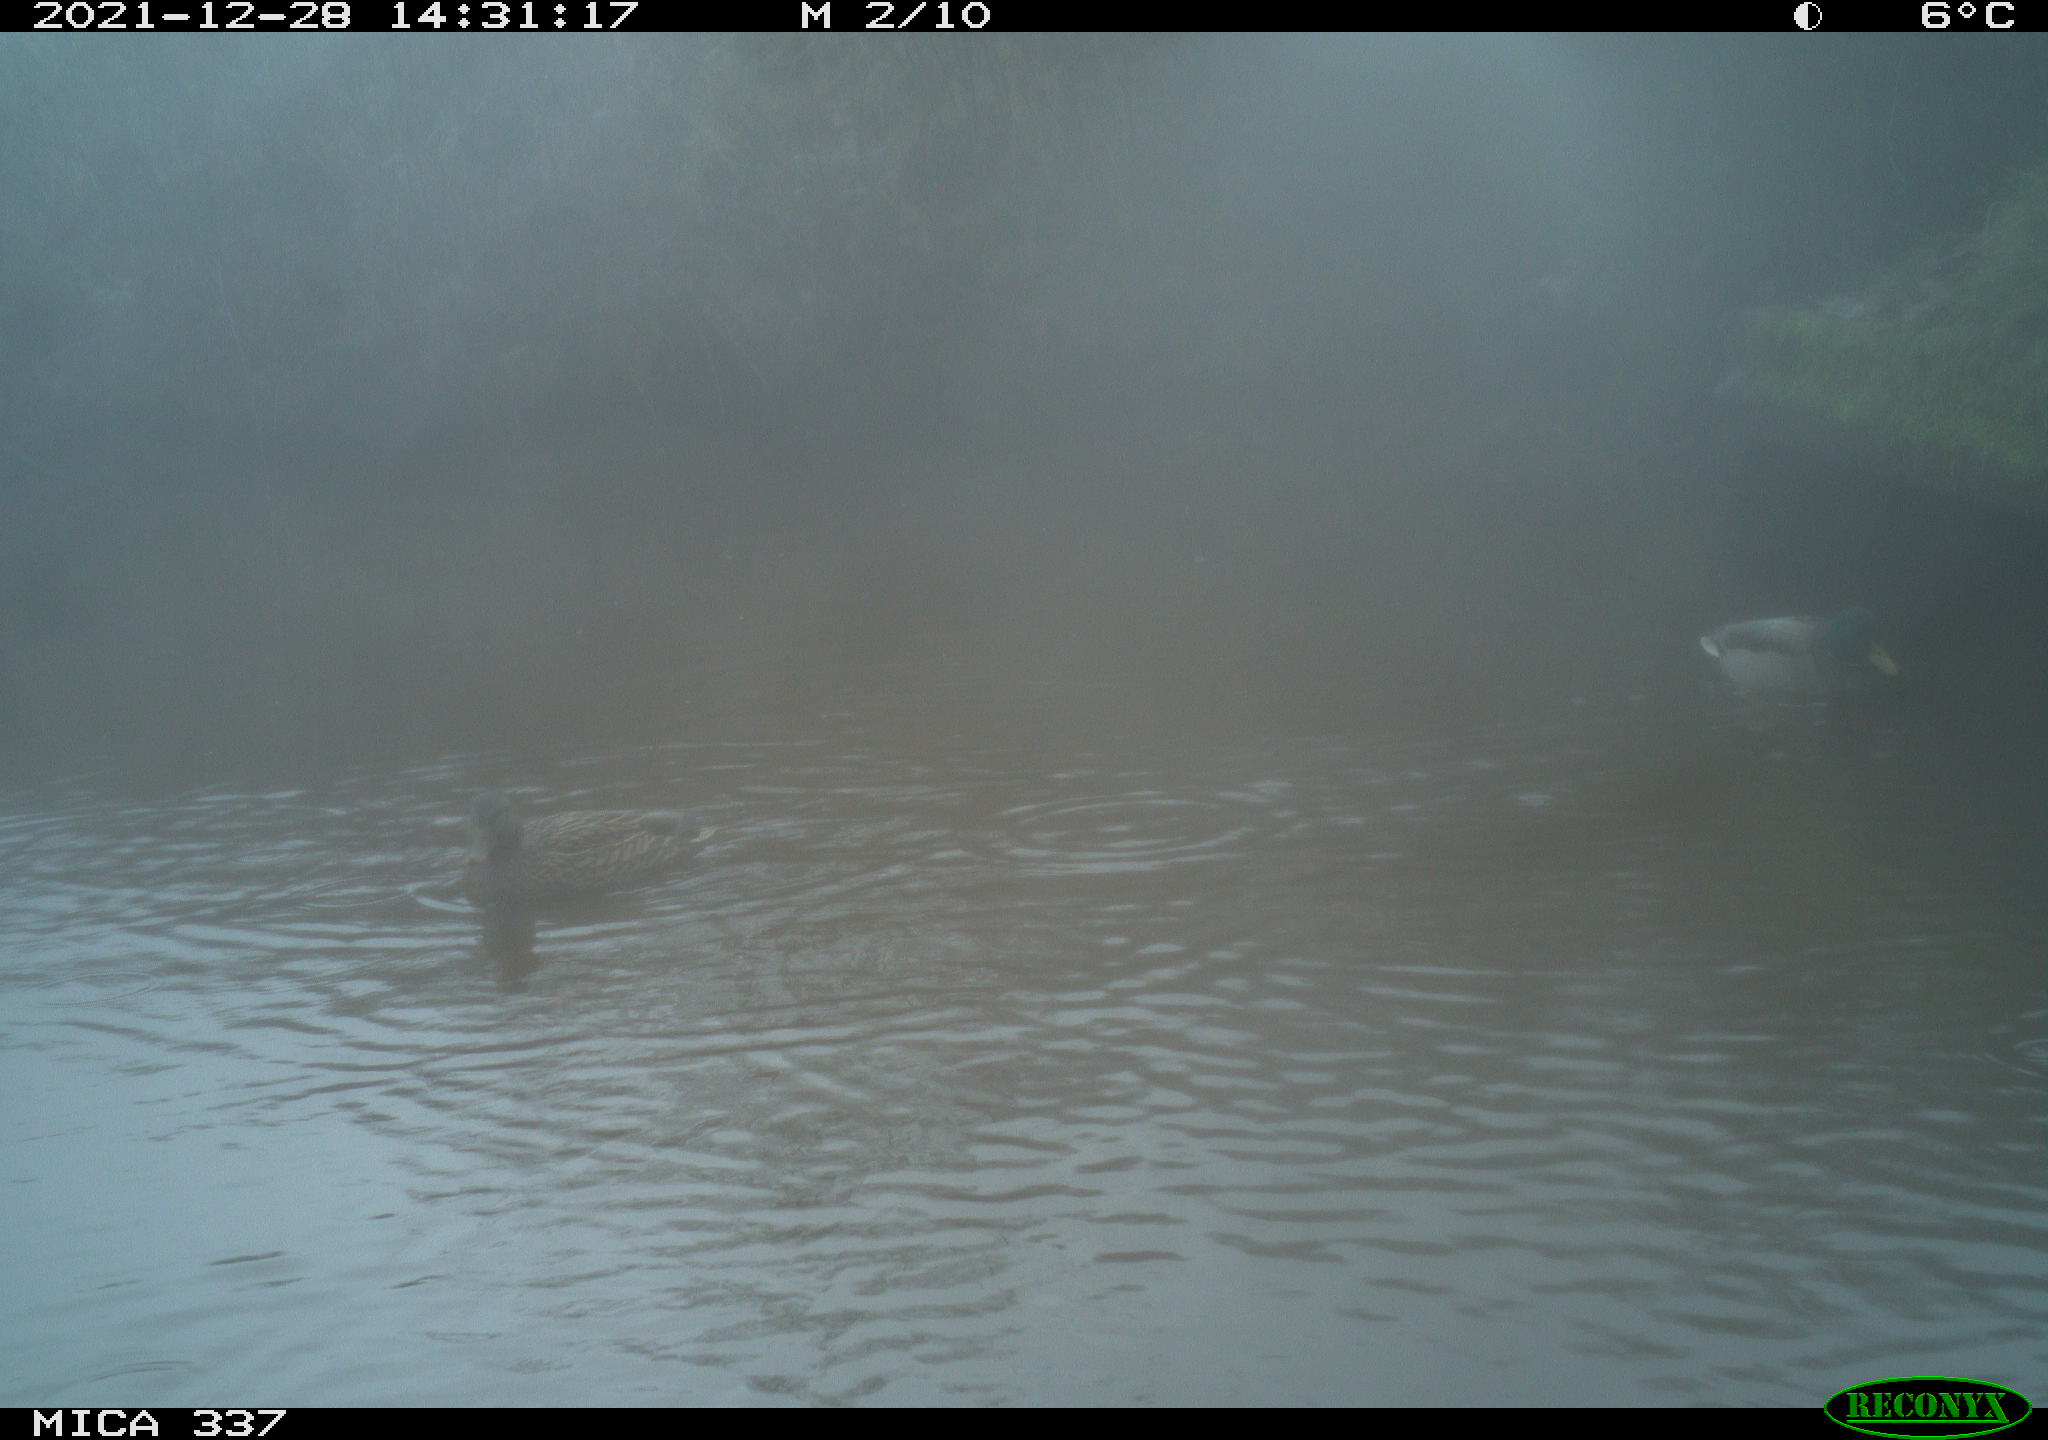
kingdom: Animalia
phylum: Chordata
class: Aves
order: Anseriformes
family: Anatidae
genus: Anas
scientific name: Anas platyrhynchos
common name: Mallard
